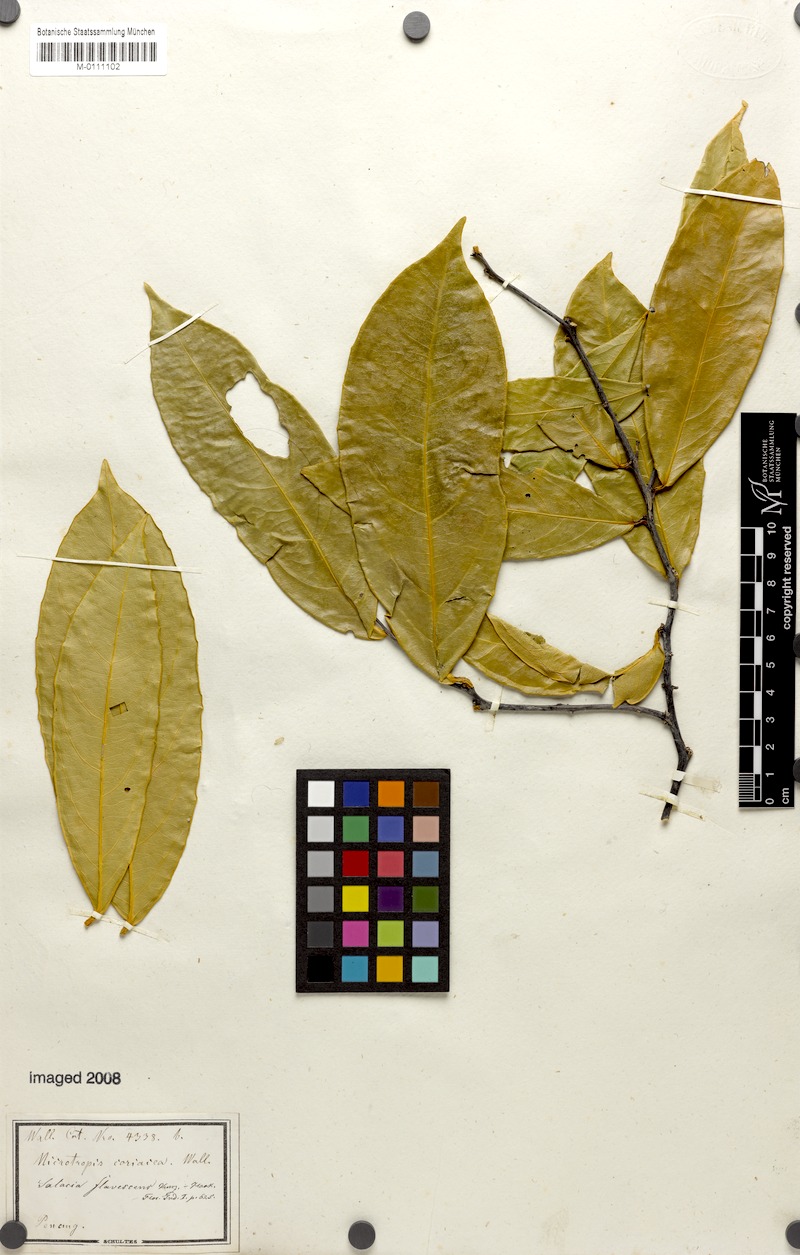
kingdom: Plantae
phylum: Tracheophyta
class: Magnoliopsida
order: Celastrales
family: Celastraceae
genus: Salacia
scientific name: Salacia macrophylla
